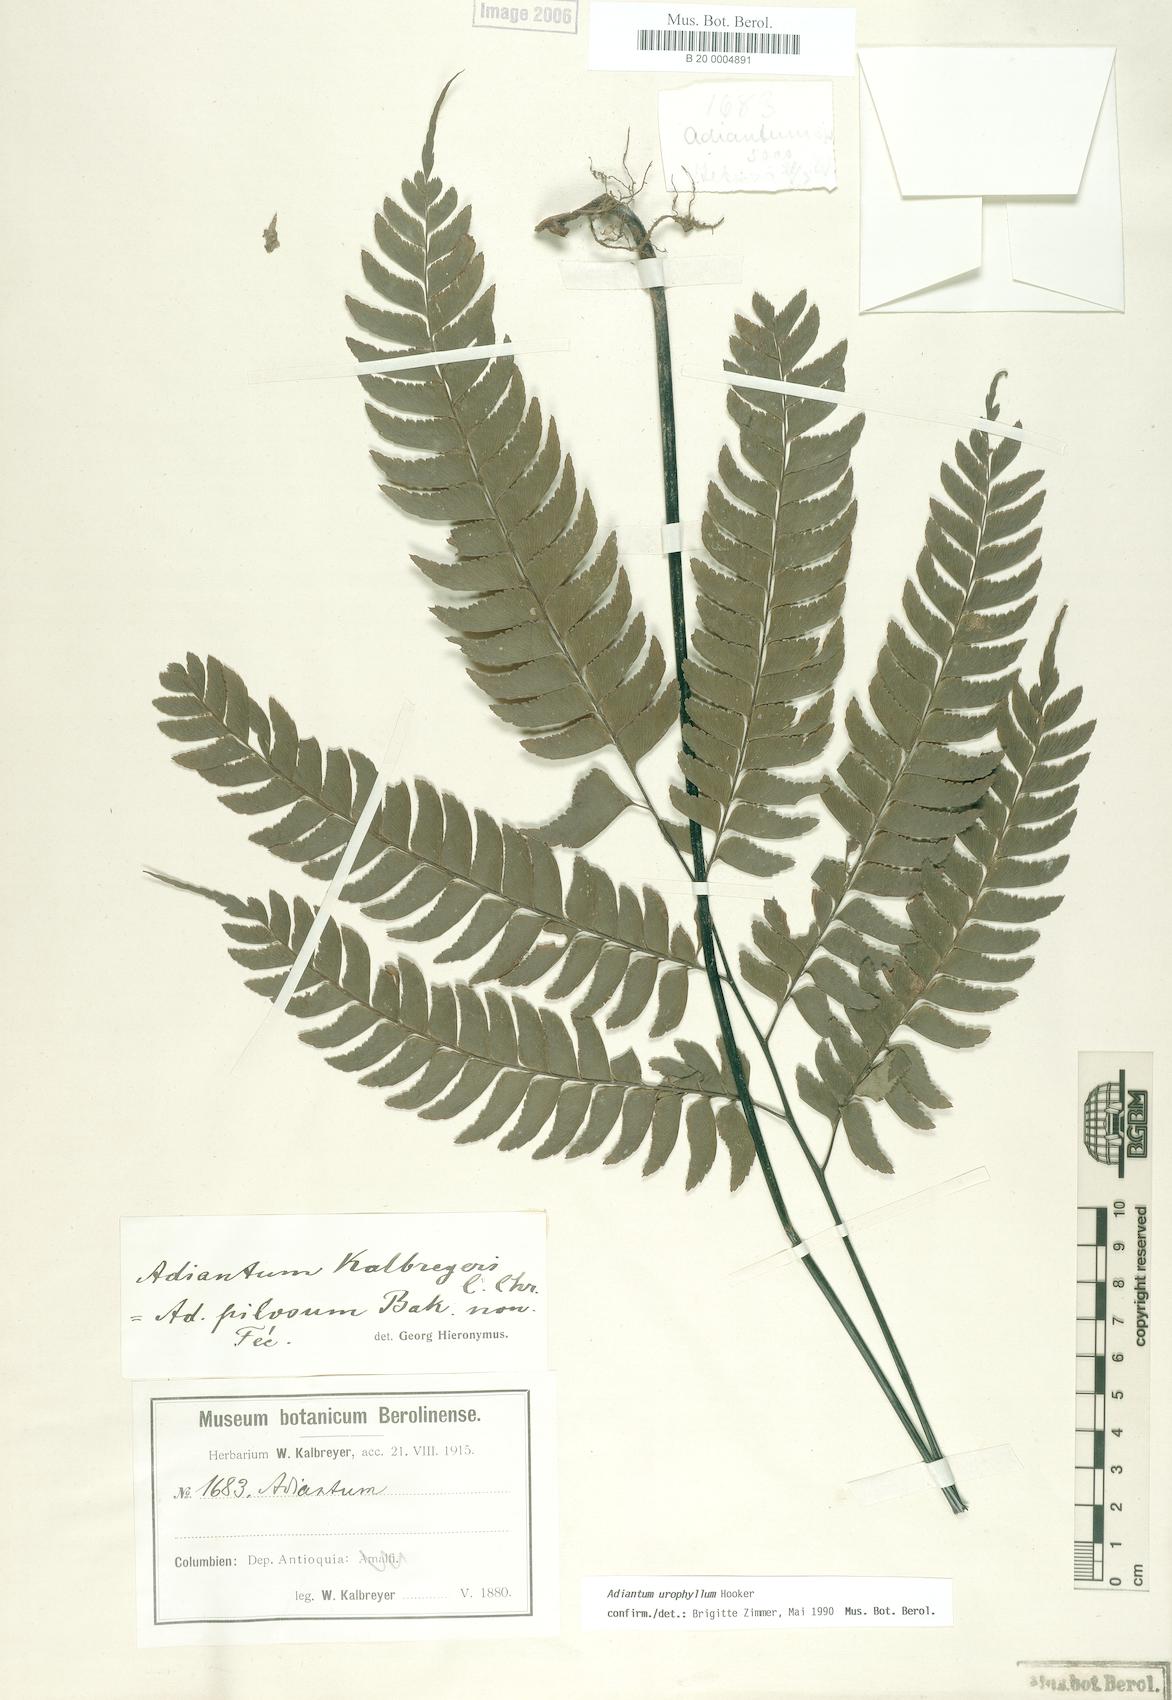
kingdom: Plantae
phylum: Tracheophyta
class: Polypodiopsida
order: Polypodiales
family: Pteridaceae
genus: Adiantum
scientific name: Adiantum urophyllum
